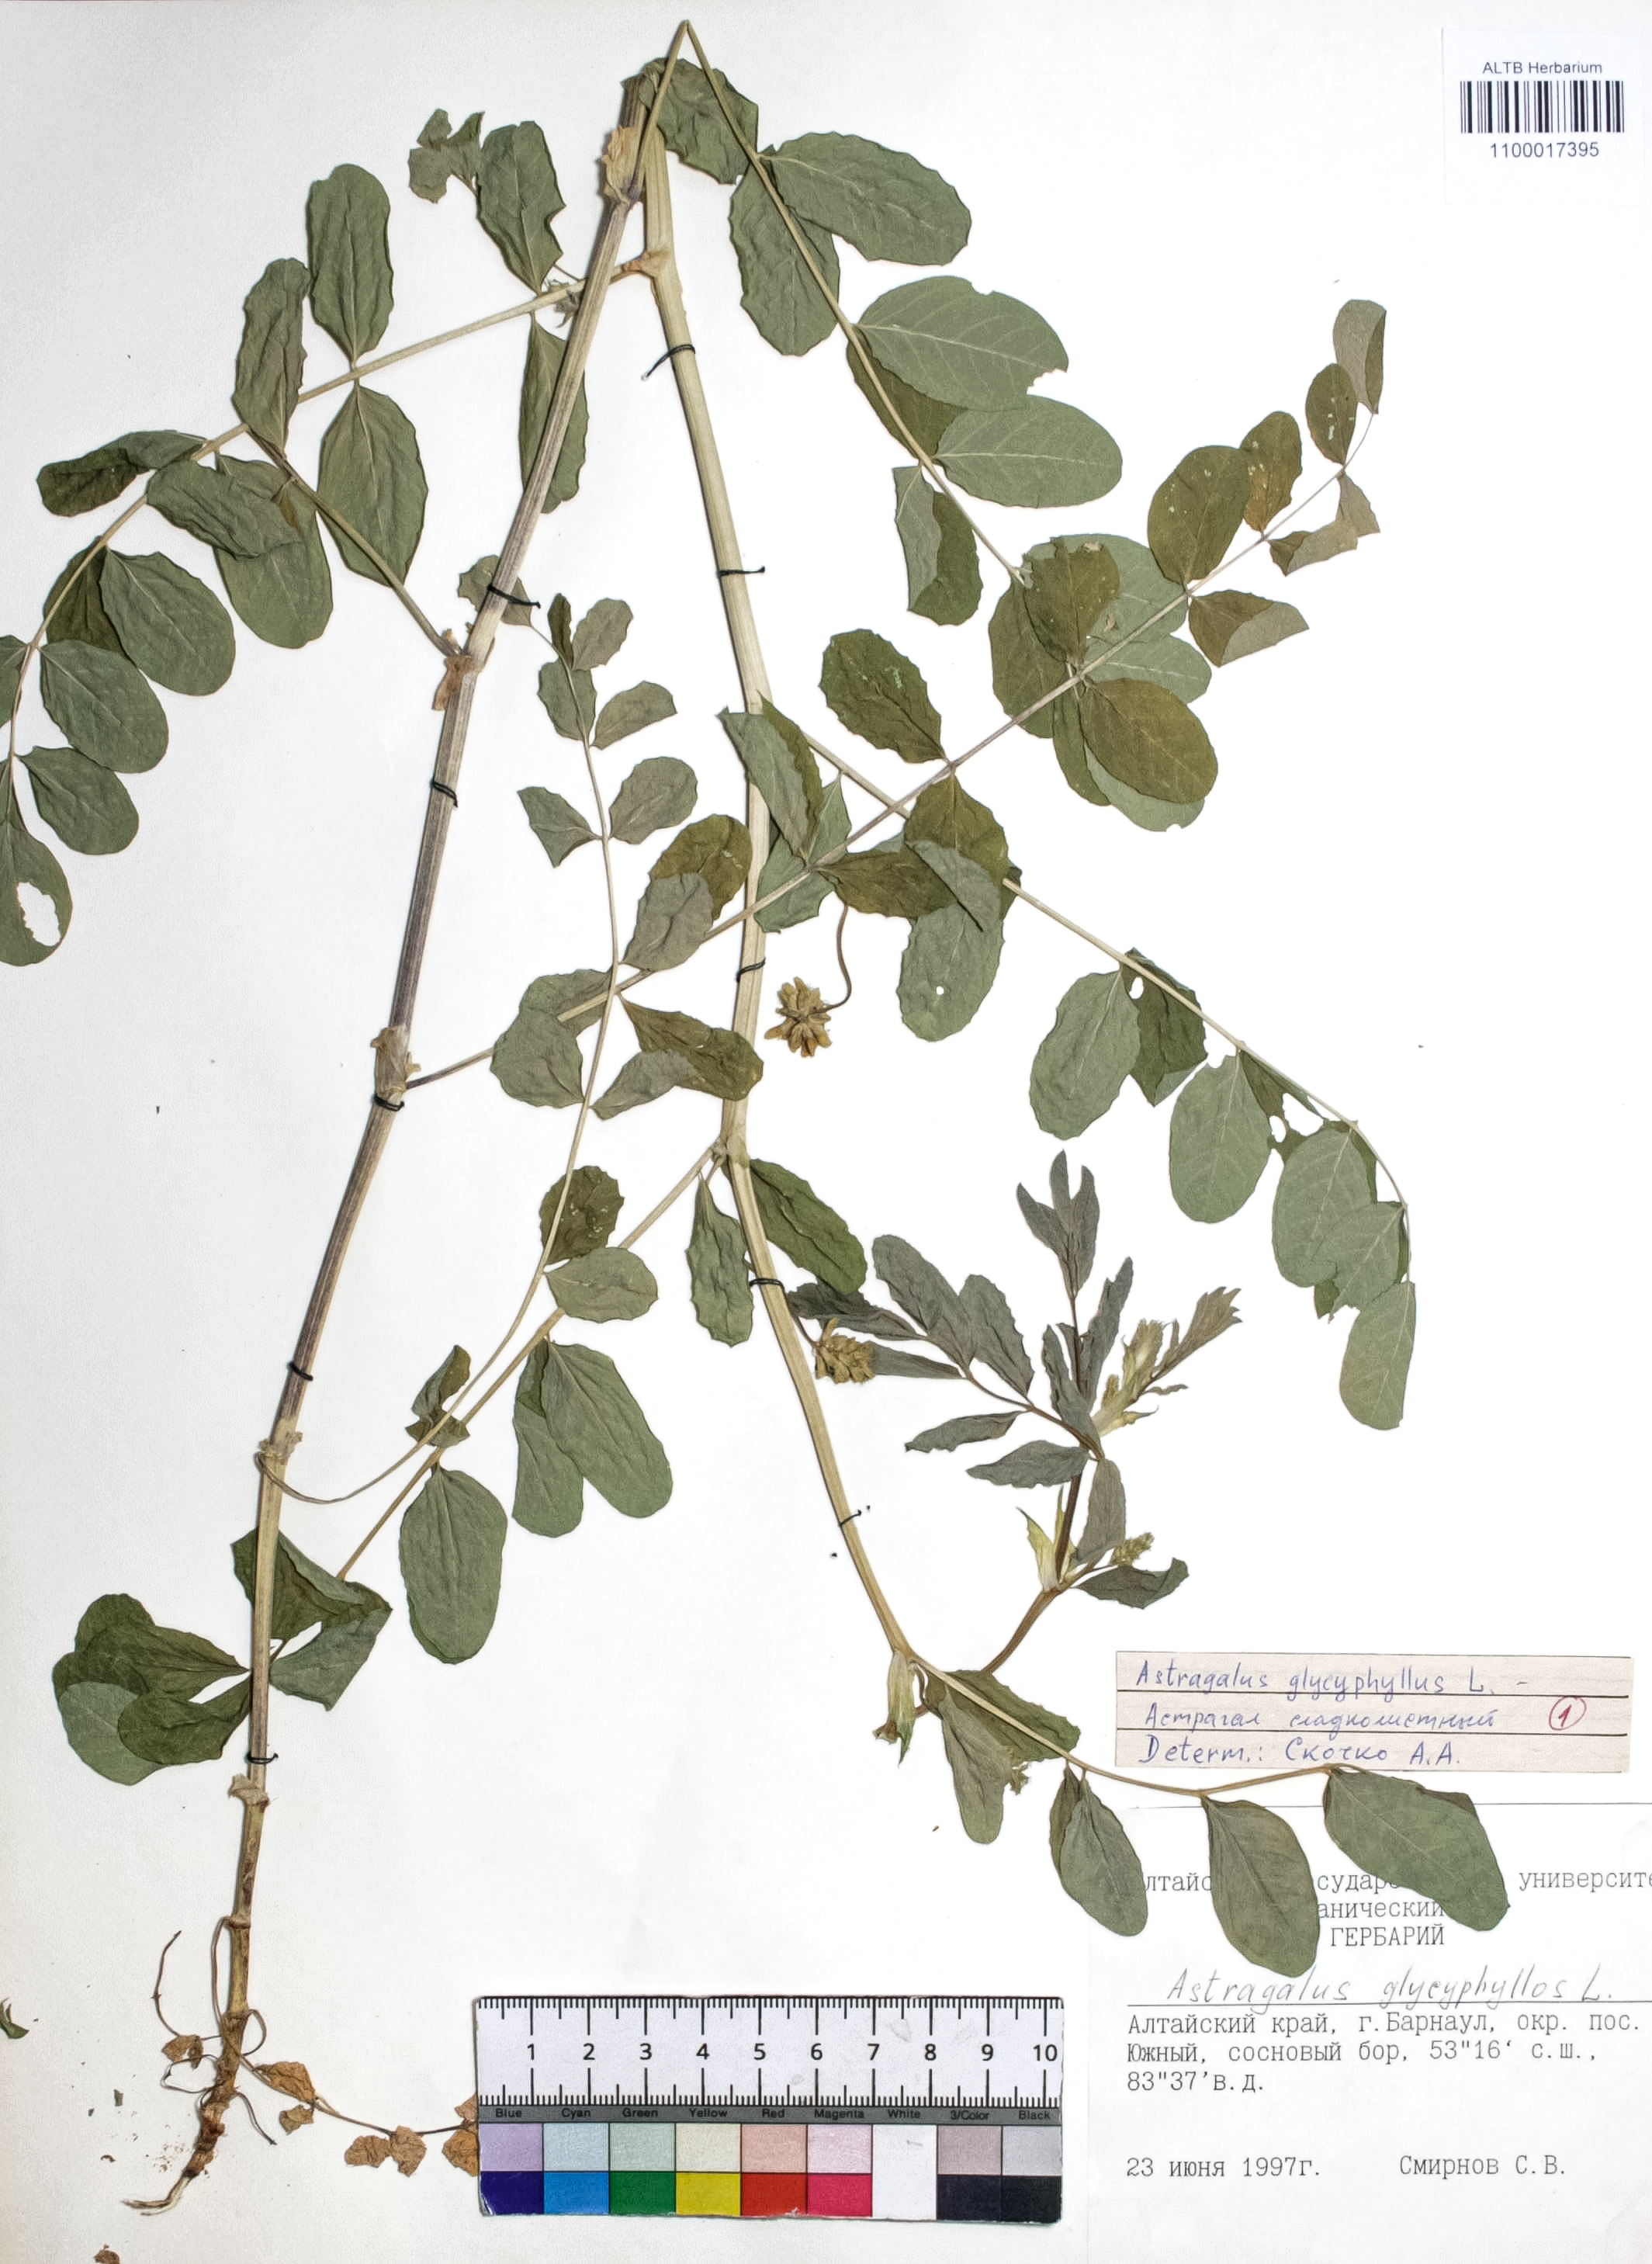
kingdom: Plantae
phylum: Tracheophyta
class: Magnoliopsida
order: Fabales
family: Fabaceae
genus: Astragalus
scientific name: Astragalus glycyphyllos
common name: Wild liquorice
